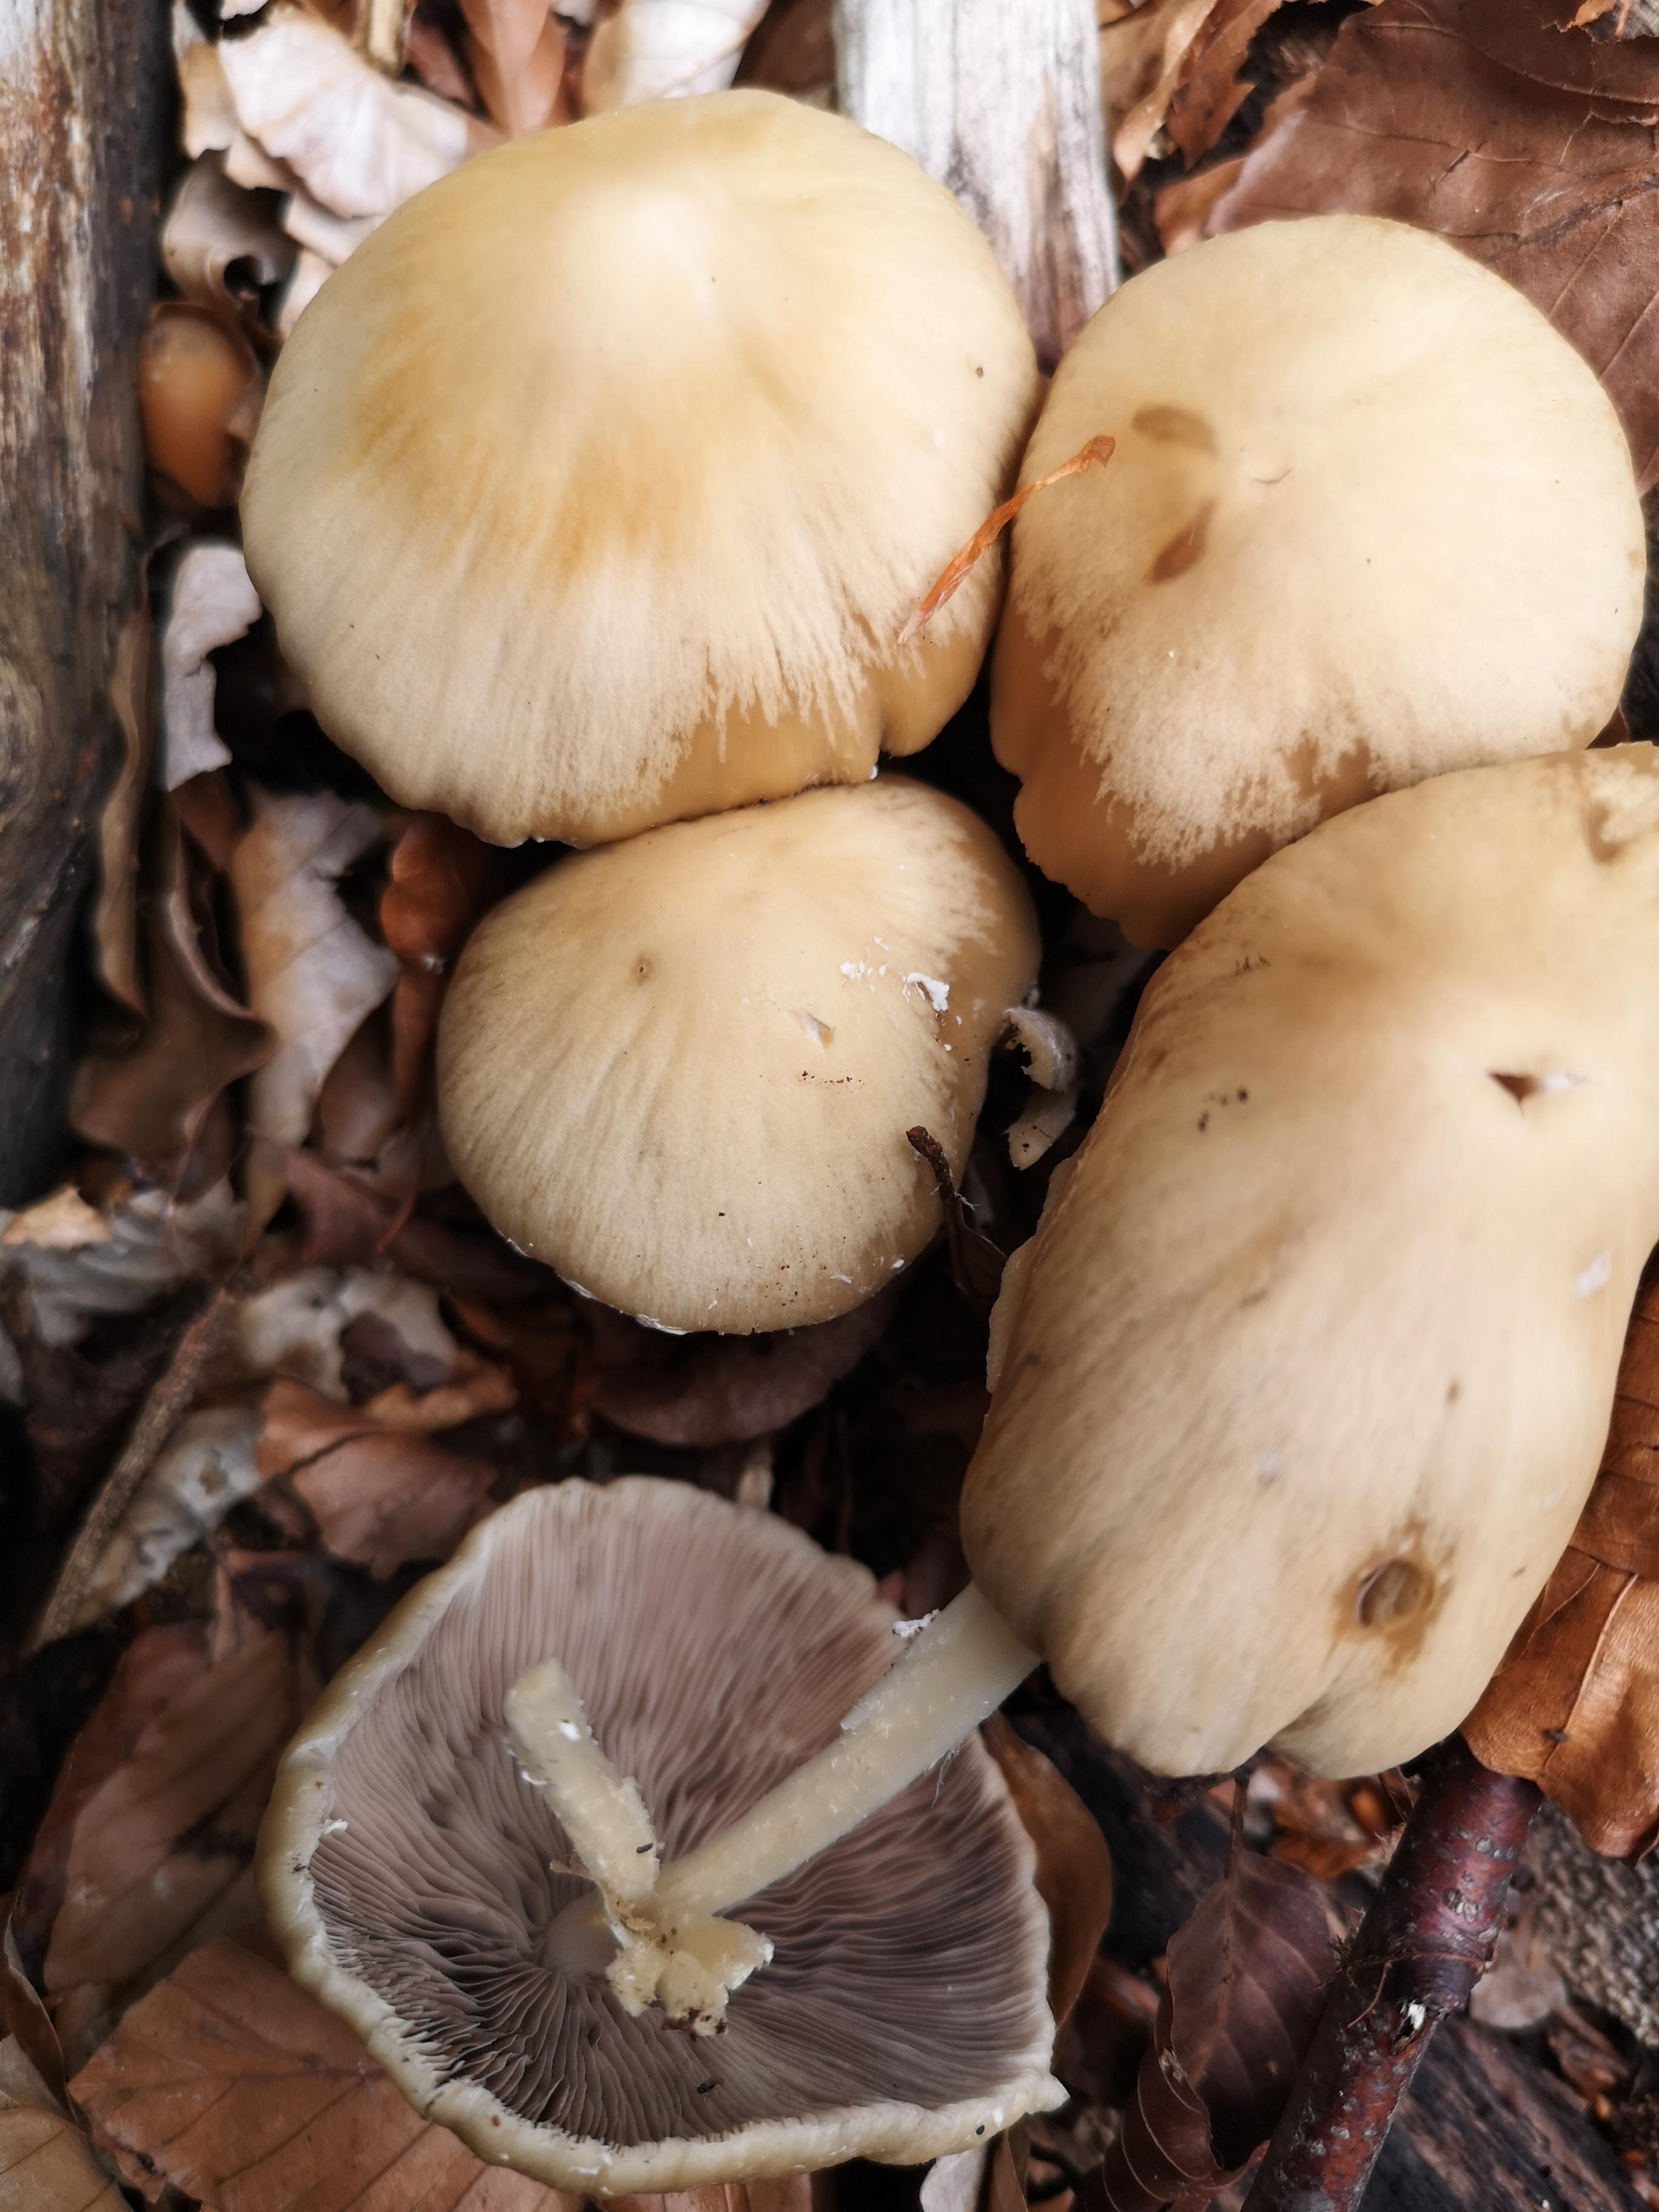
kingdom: Fungi
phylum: Basidiomycota
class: Agaricomycetes
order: Agaricales
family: Psathyrellaceae
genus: Candolleomyces
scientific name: Candolleomyces candolleanus
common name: Candolles mørkhat
